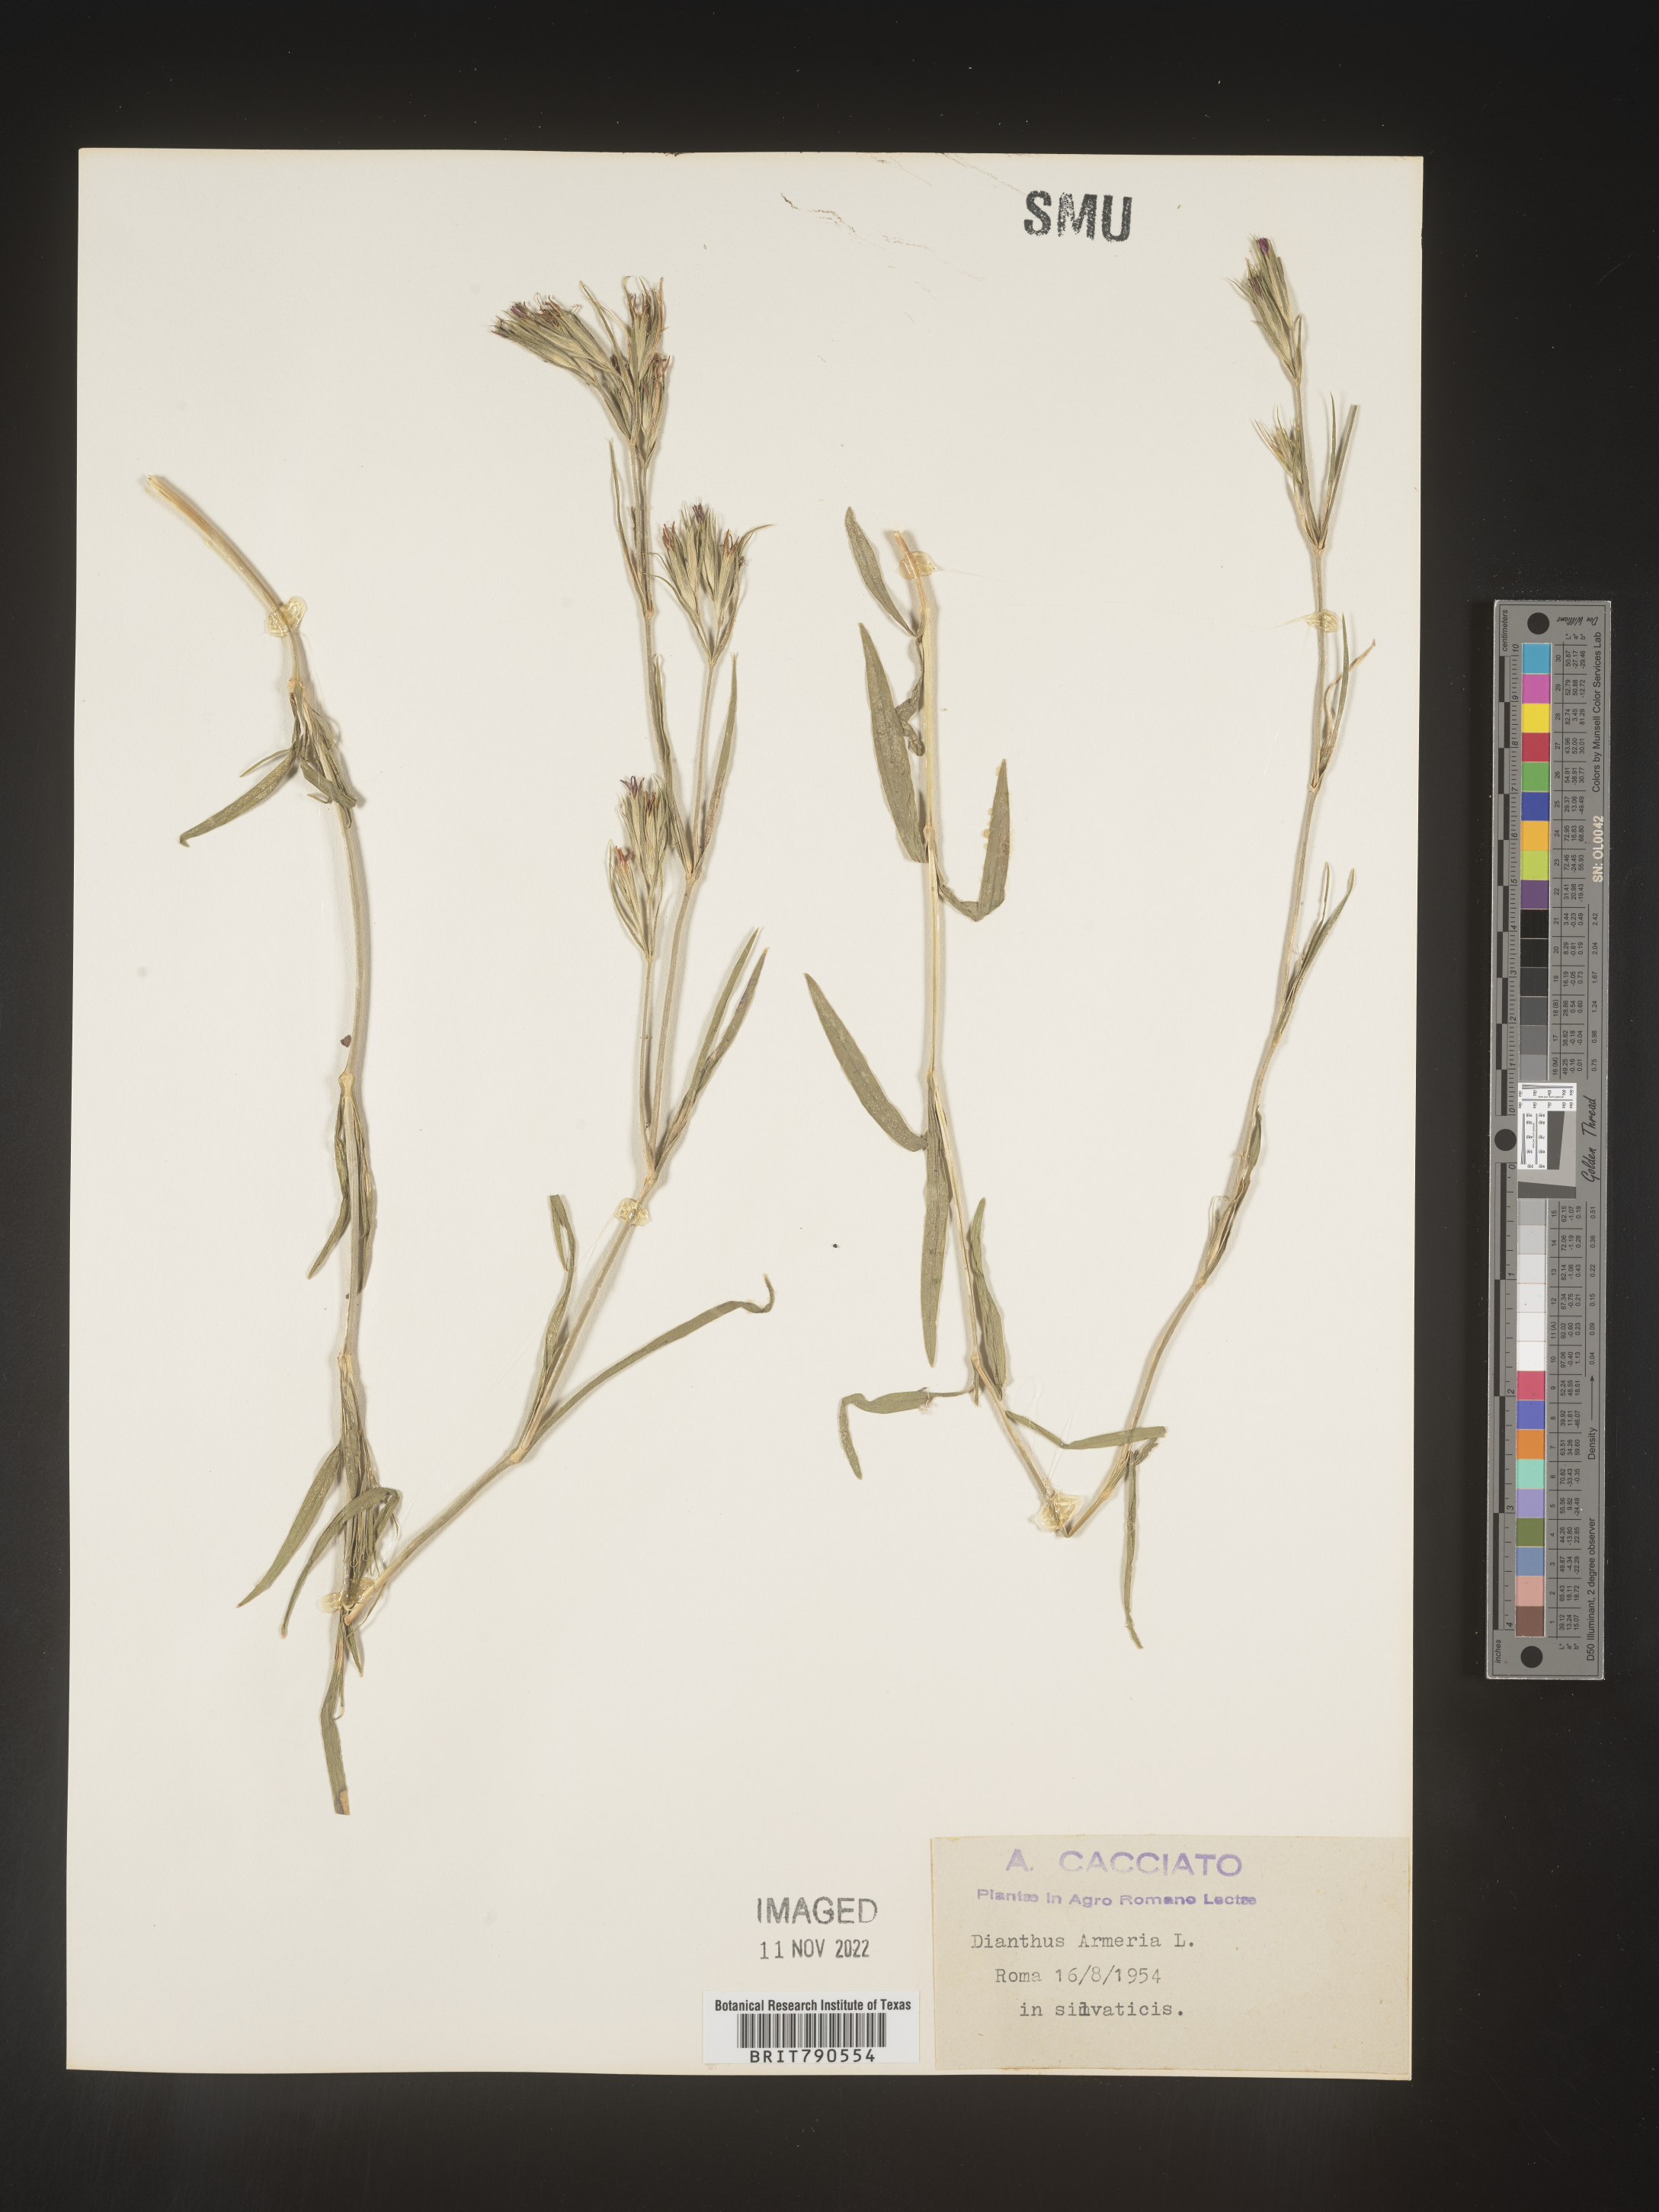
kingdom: Plantae
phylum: Tracheophyta
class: Magnoliopsida
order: Caryophyllales
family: Caryophyllaceae
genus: Dianthus
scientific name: Dianthus
